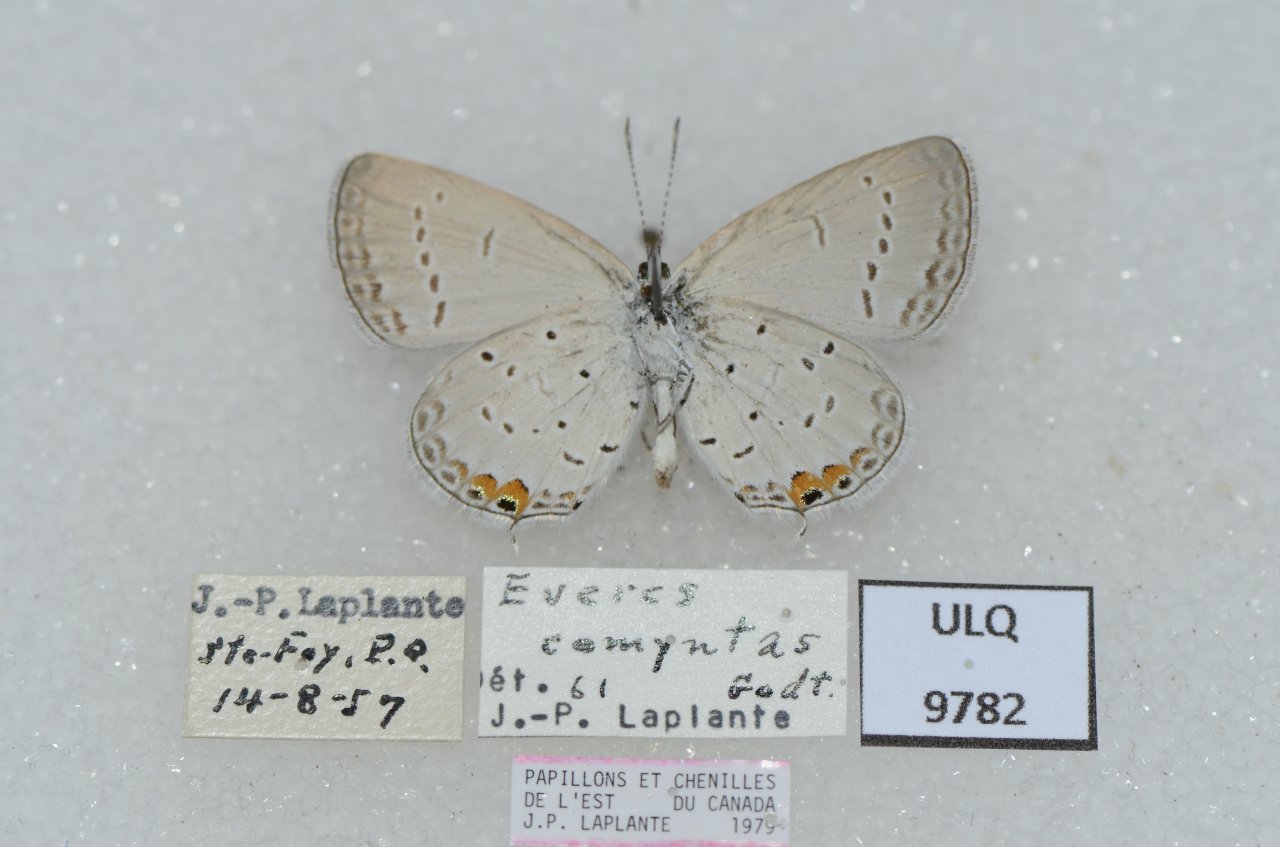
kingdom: Animalia
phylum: Arthropoda
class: Insecta
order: Lepidoptera
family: Lycaenidae
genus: Elkalyce
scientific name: Elkalyce comyntas
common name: Eastern Tailed-Blue
